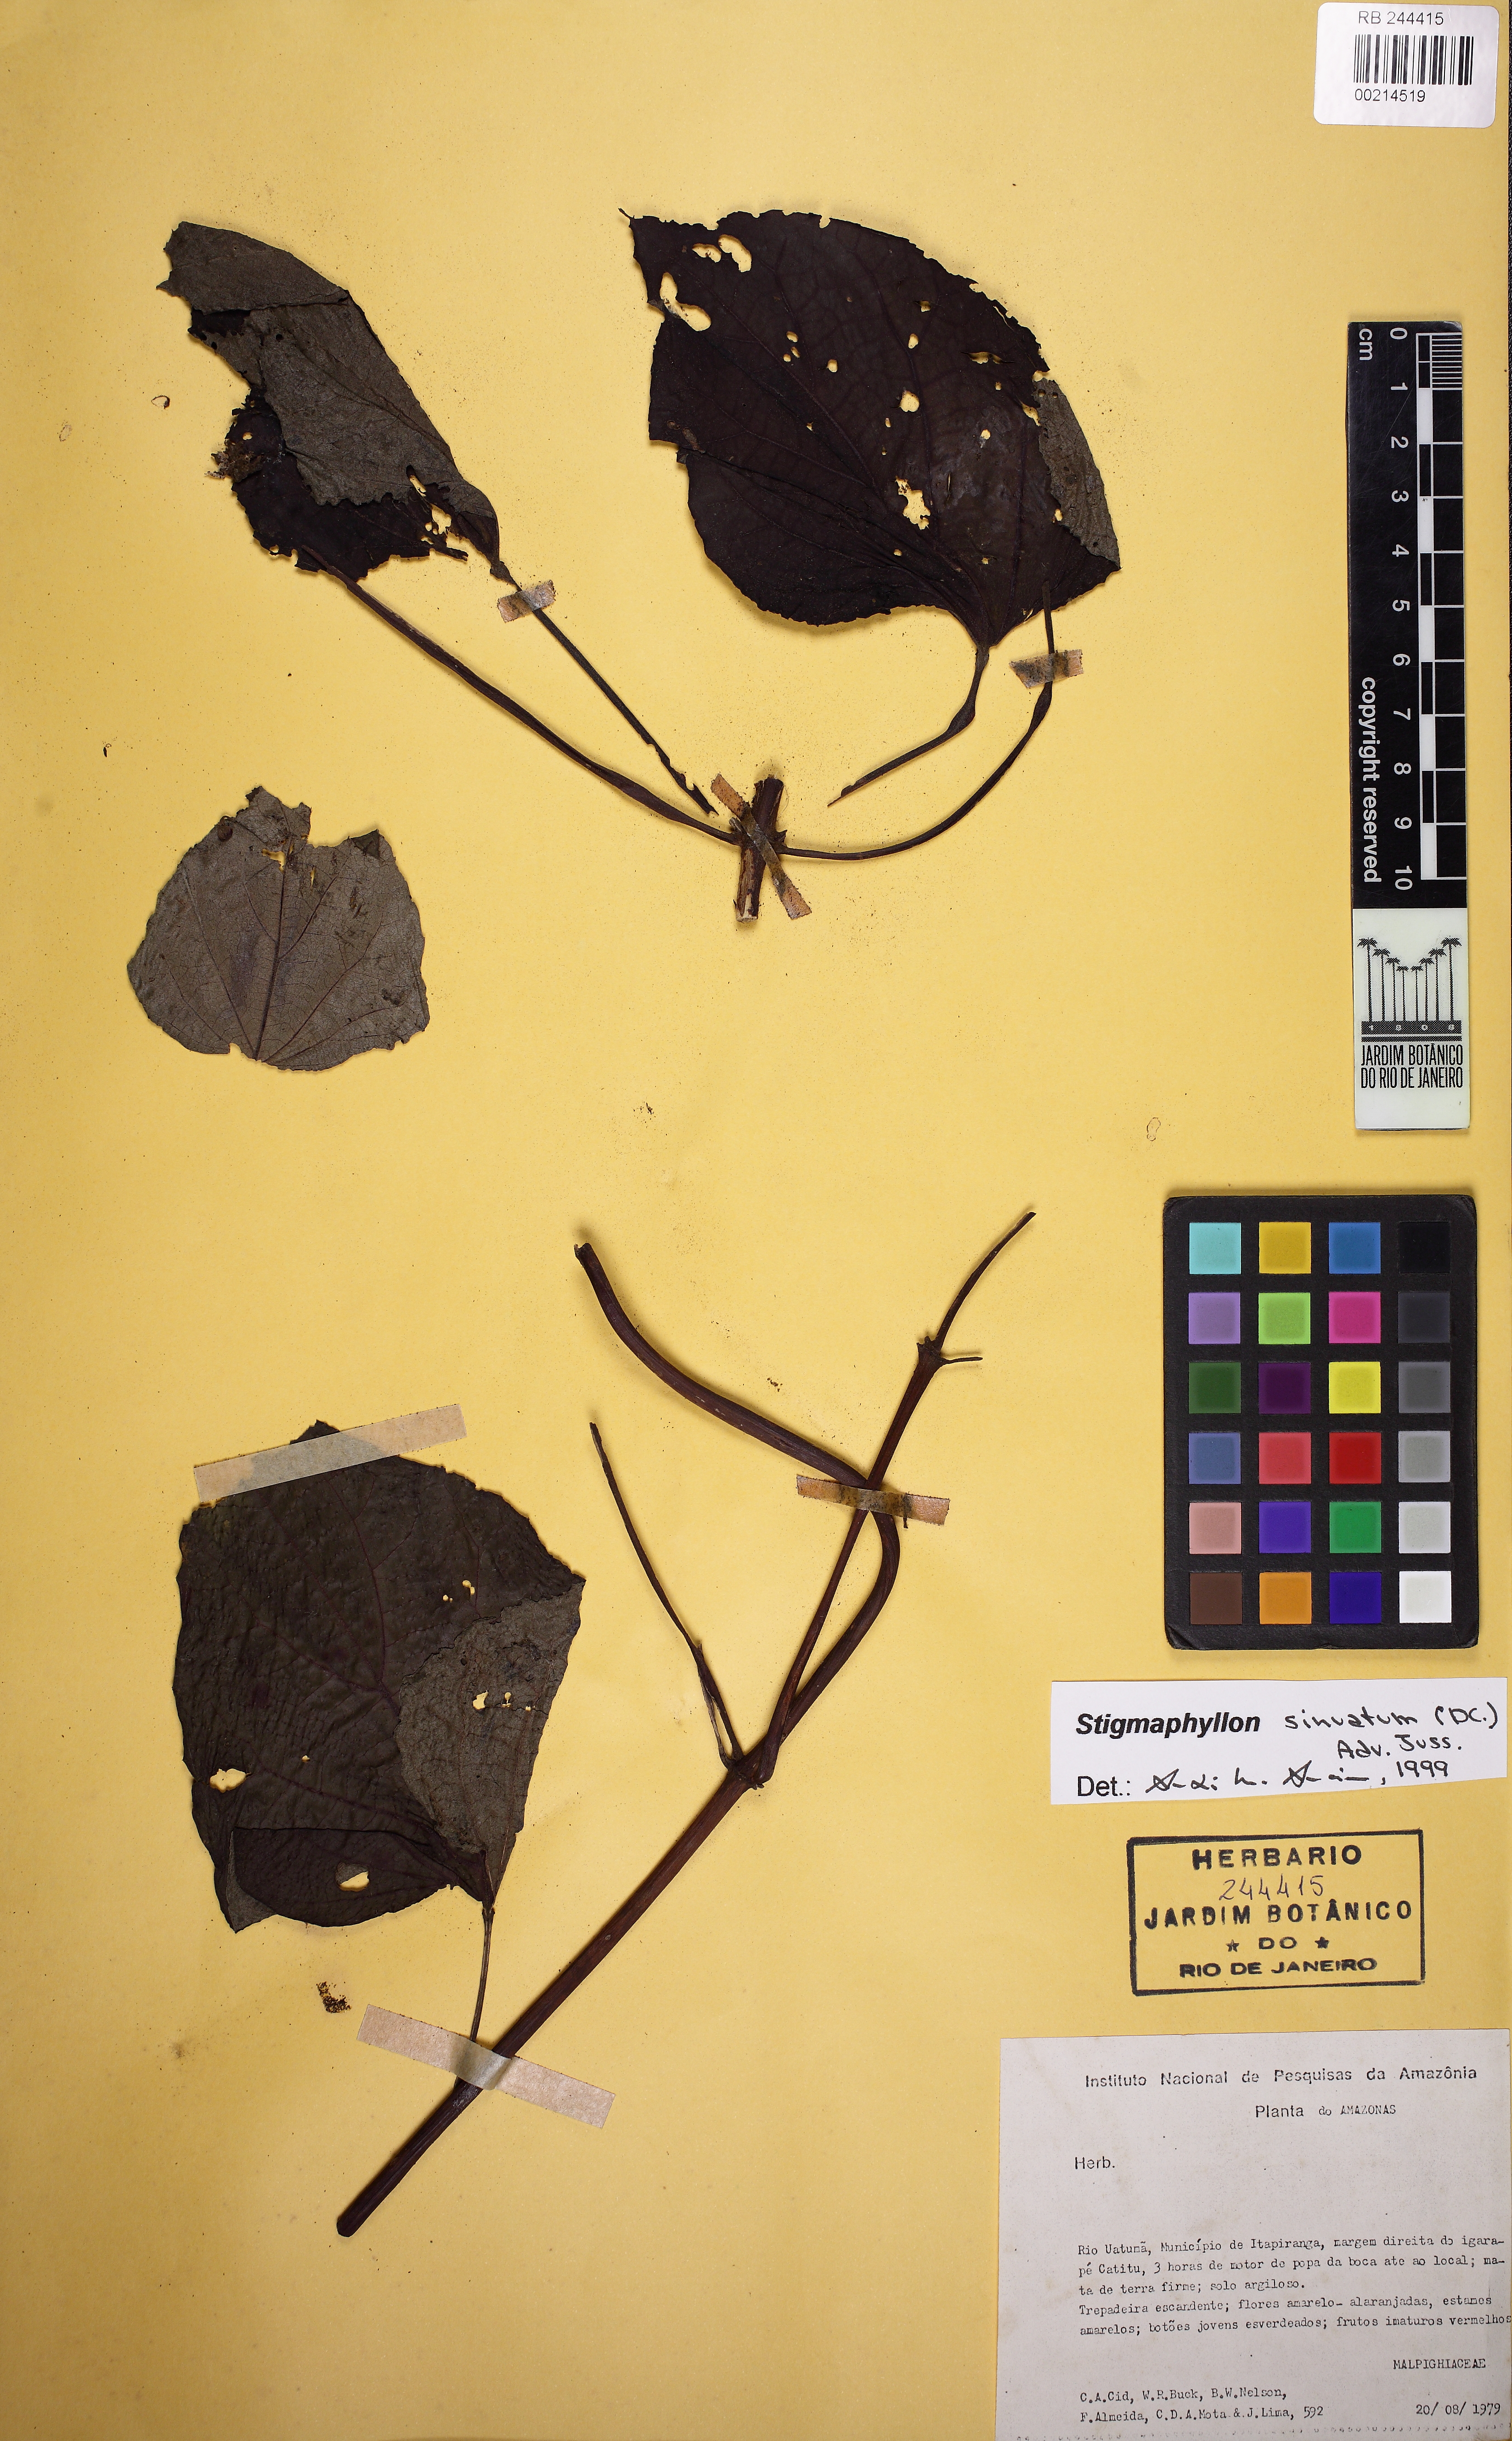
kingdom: Plantae
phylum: Tracheophyta
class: Magnoliopsida
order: Malpighiales
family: Malpighiaceae
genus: Stigmaphyllon
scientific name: Stigmaphyllon sinuatum
